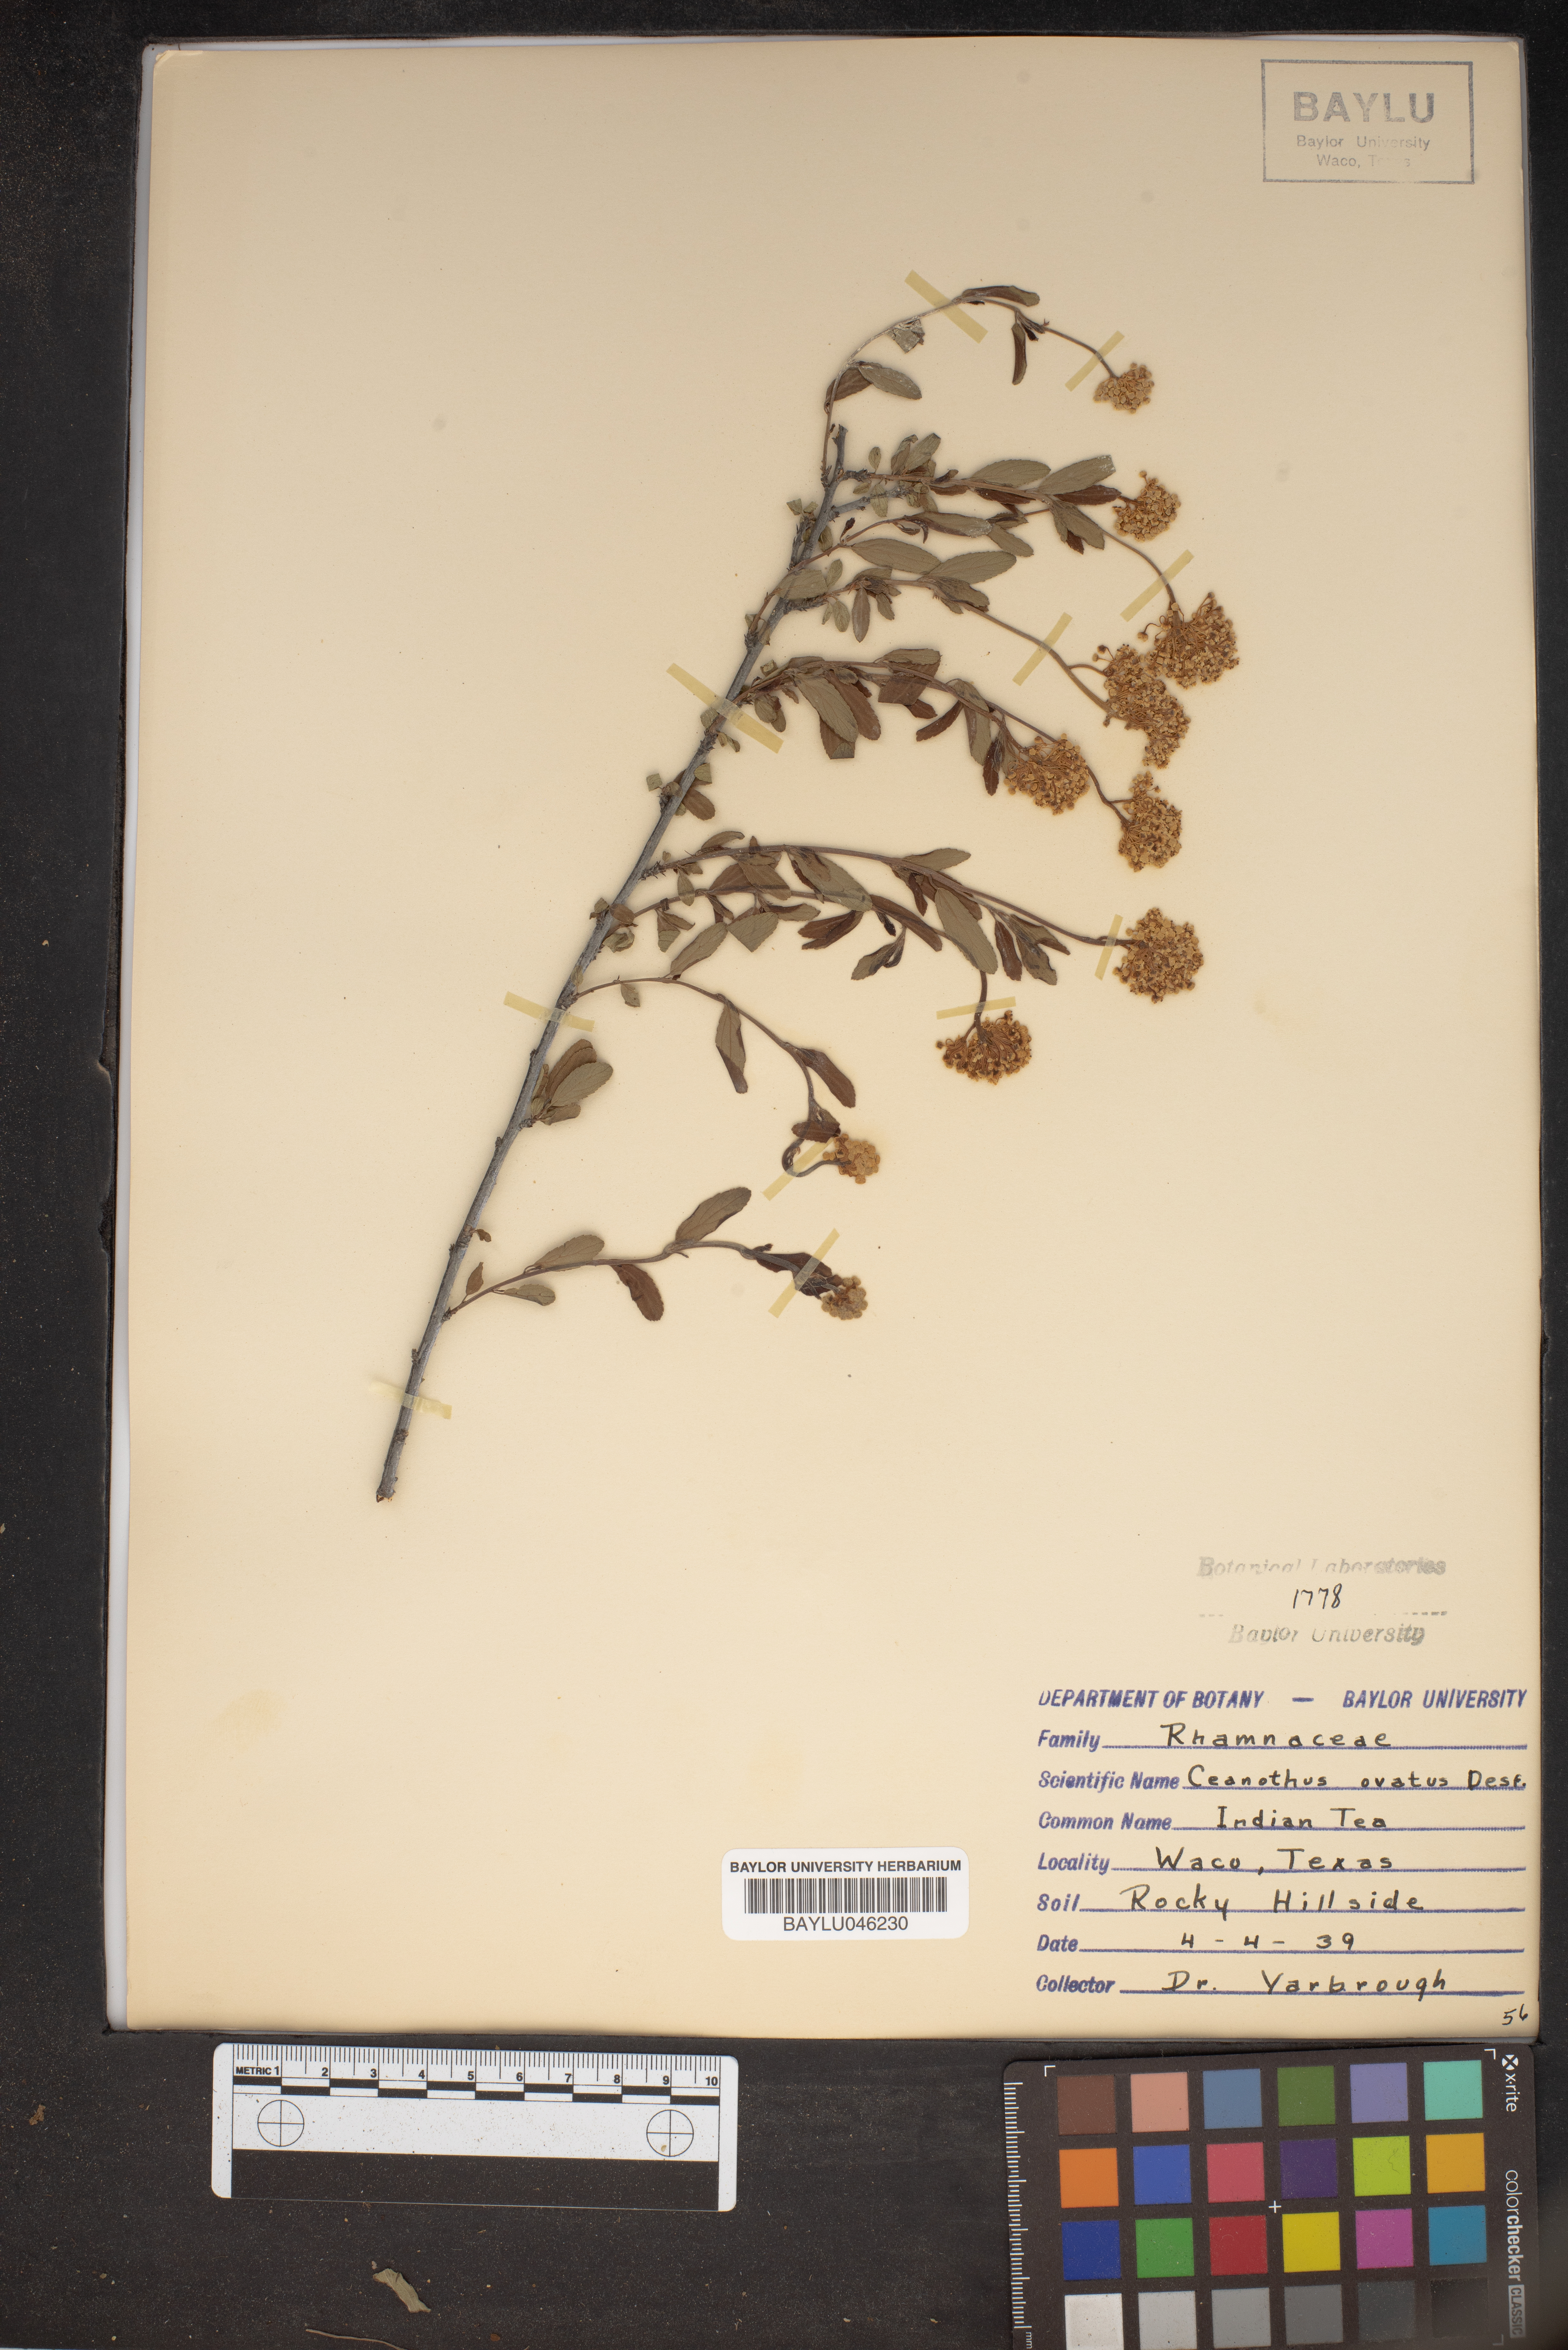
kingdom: Plantae
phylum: Tracheophyta
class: Magnoliopsida
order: Rosales
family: Rhamnaceae
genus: Ceanothus
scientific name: Ceanothus herbaceus
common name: Inland ceanothus
